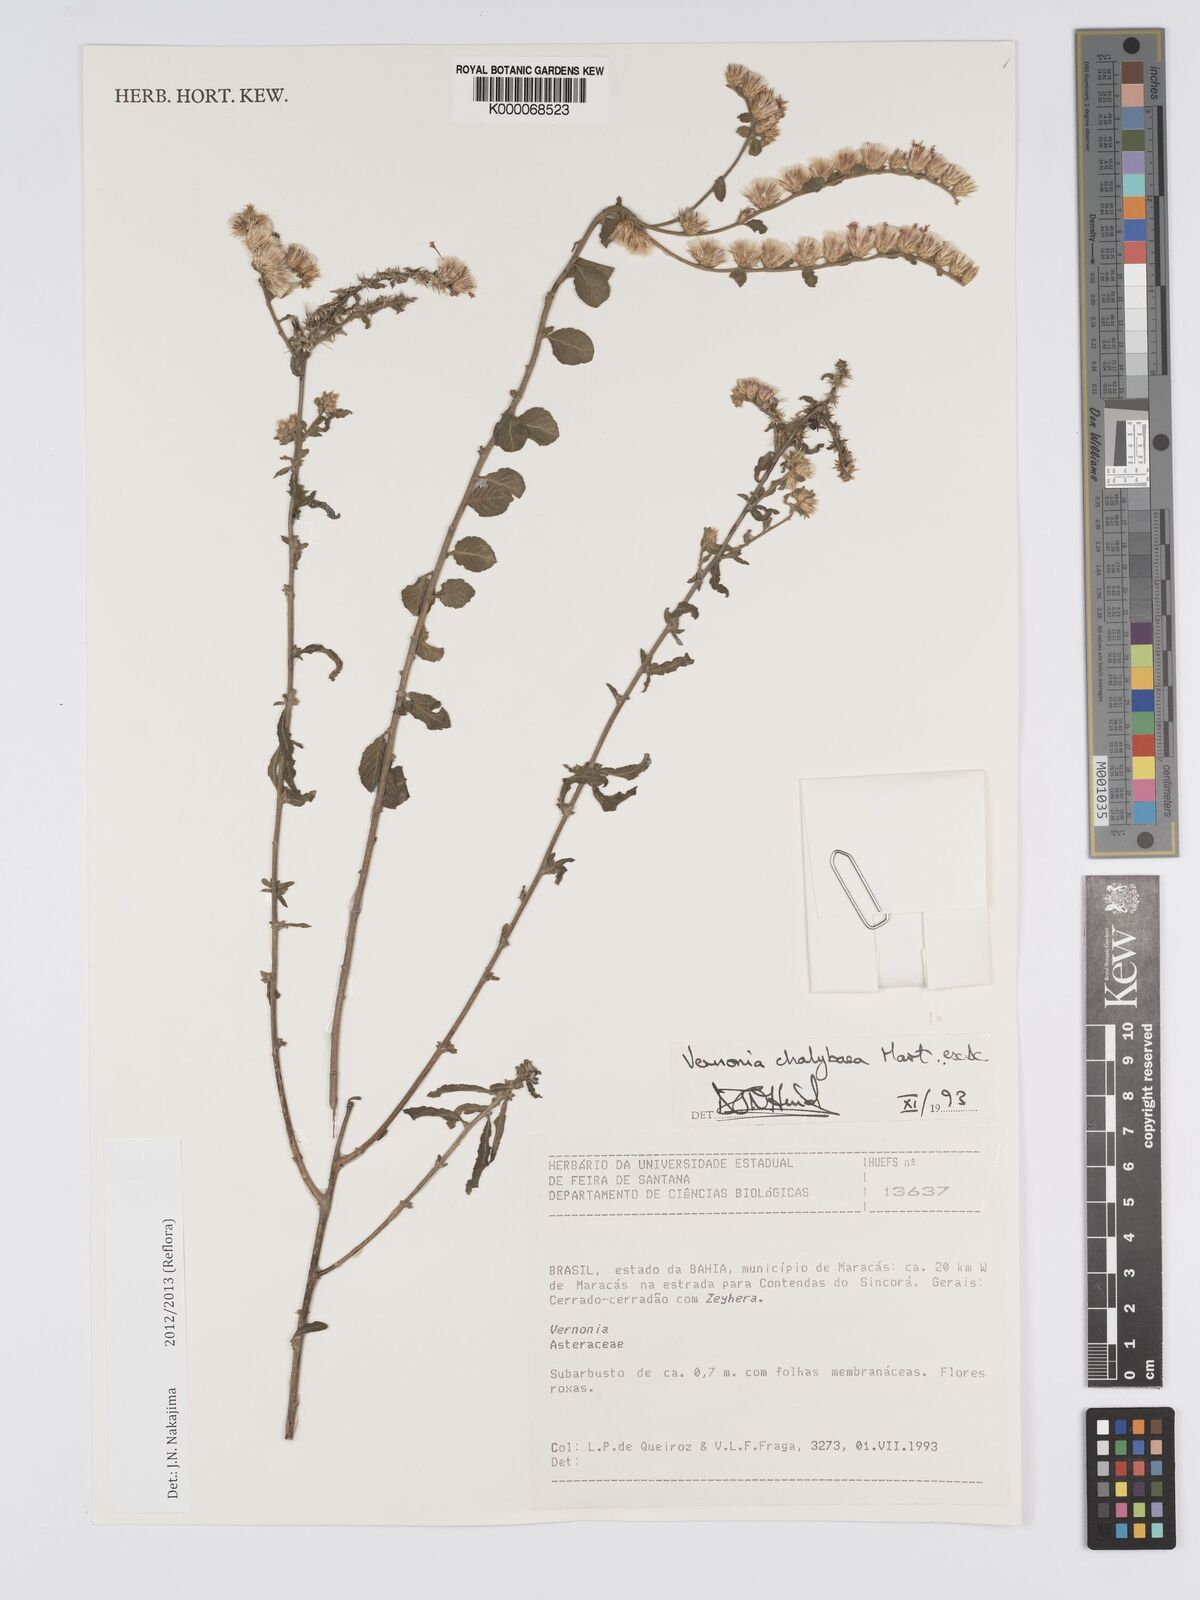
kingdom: Plantae
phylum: Tracheophyta
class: Magnoliopsida
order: Asterales
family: Asteraceae
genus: Lepidaploa
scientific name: Lepidaploa chalybaea
